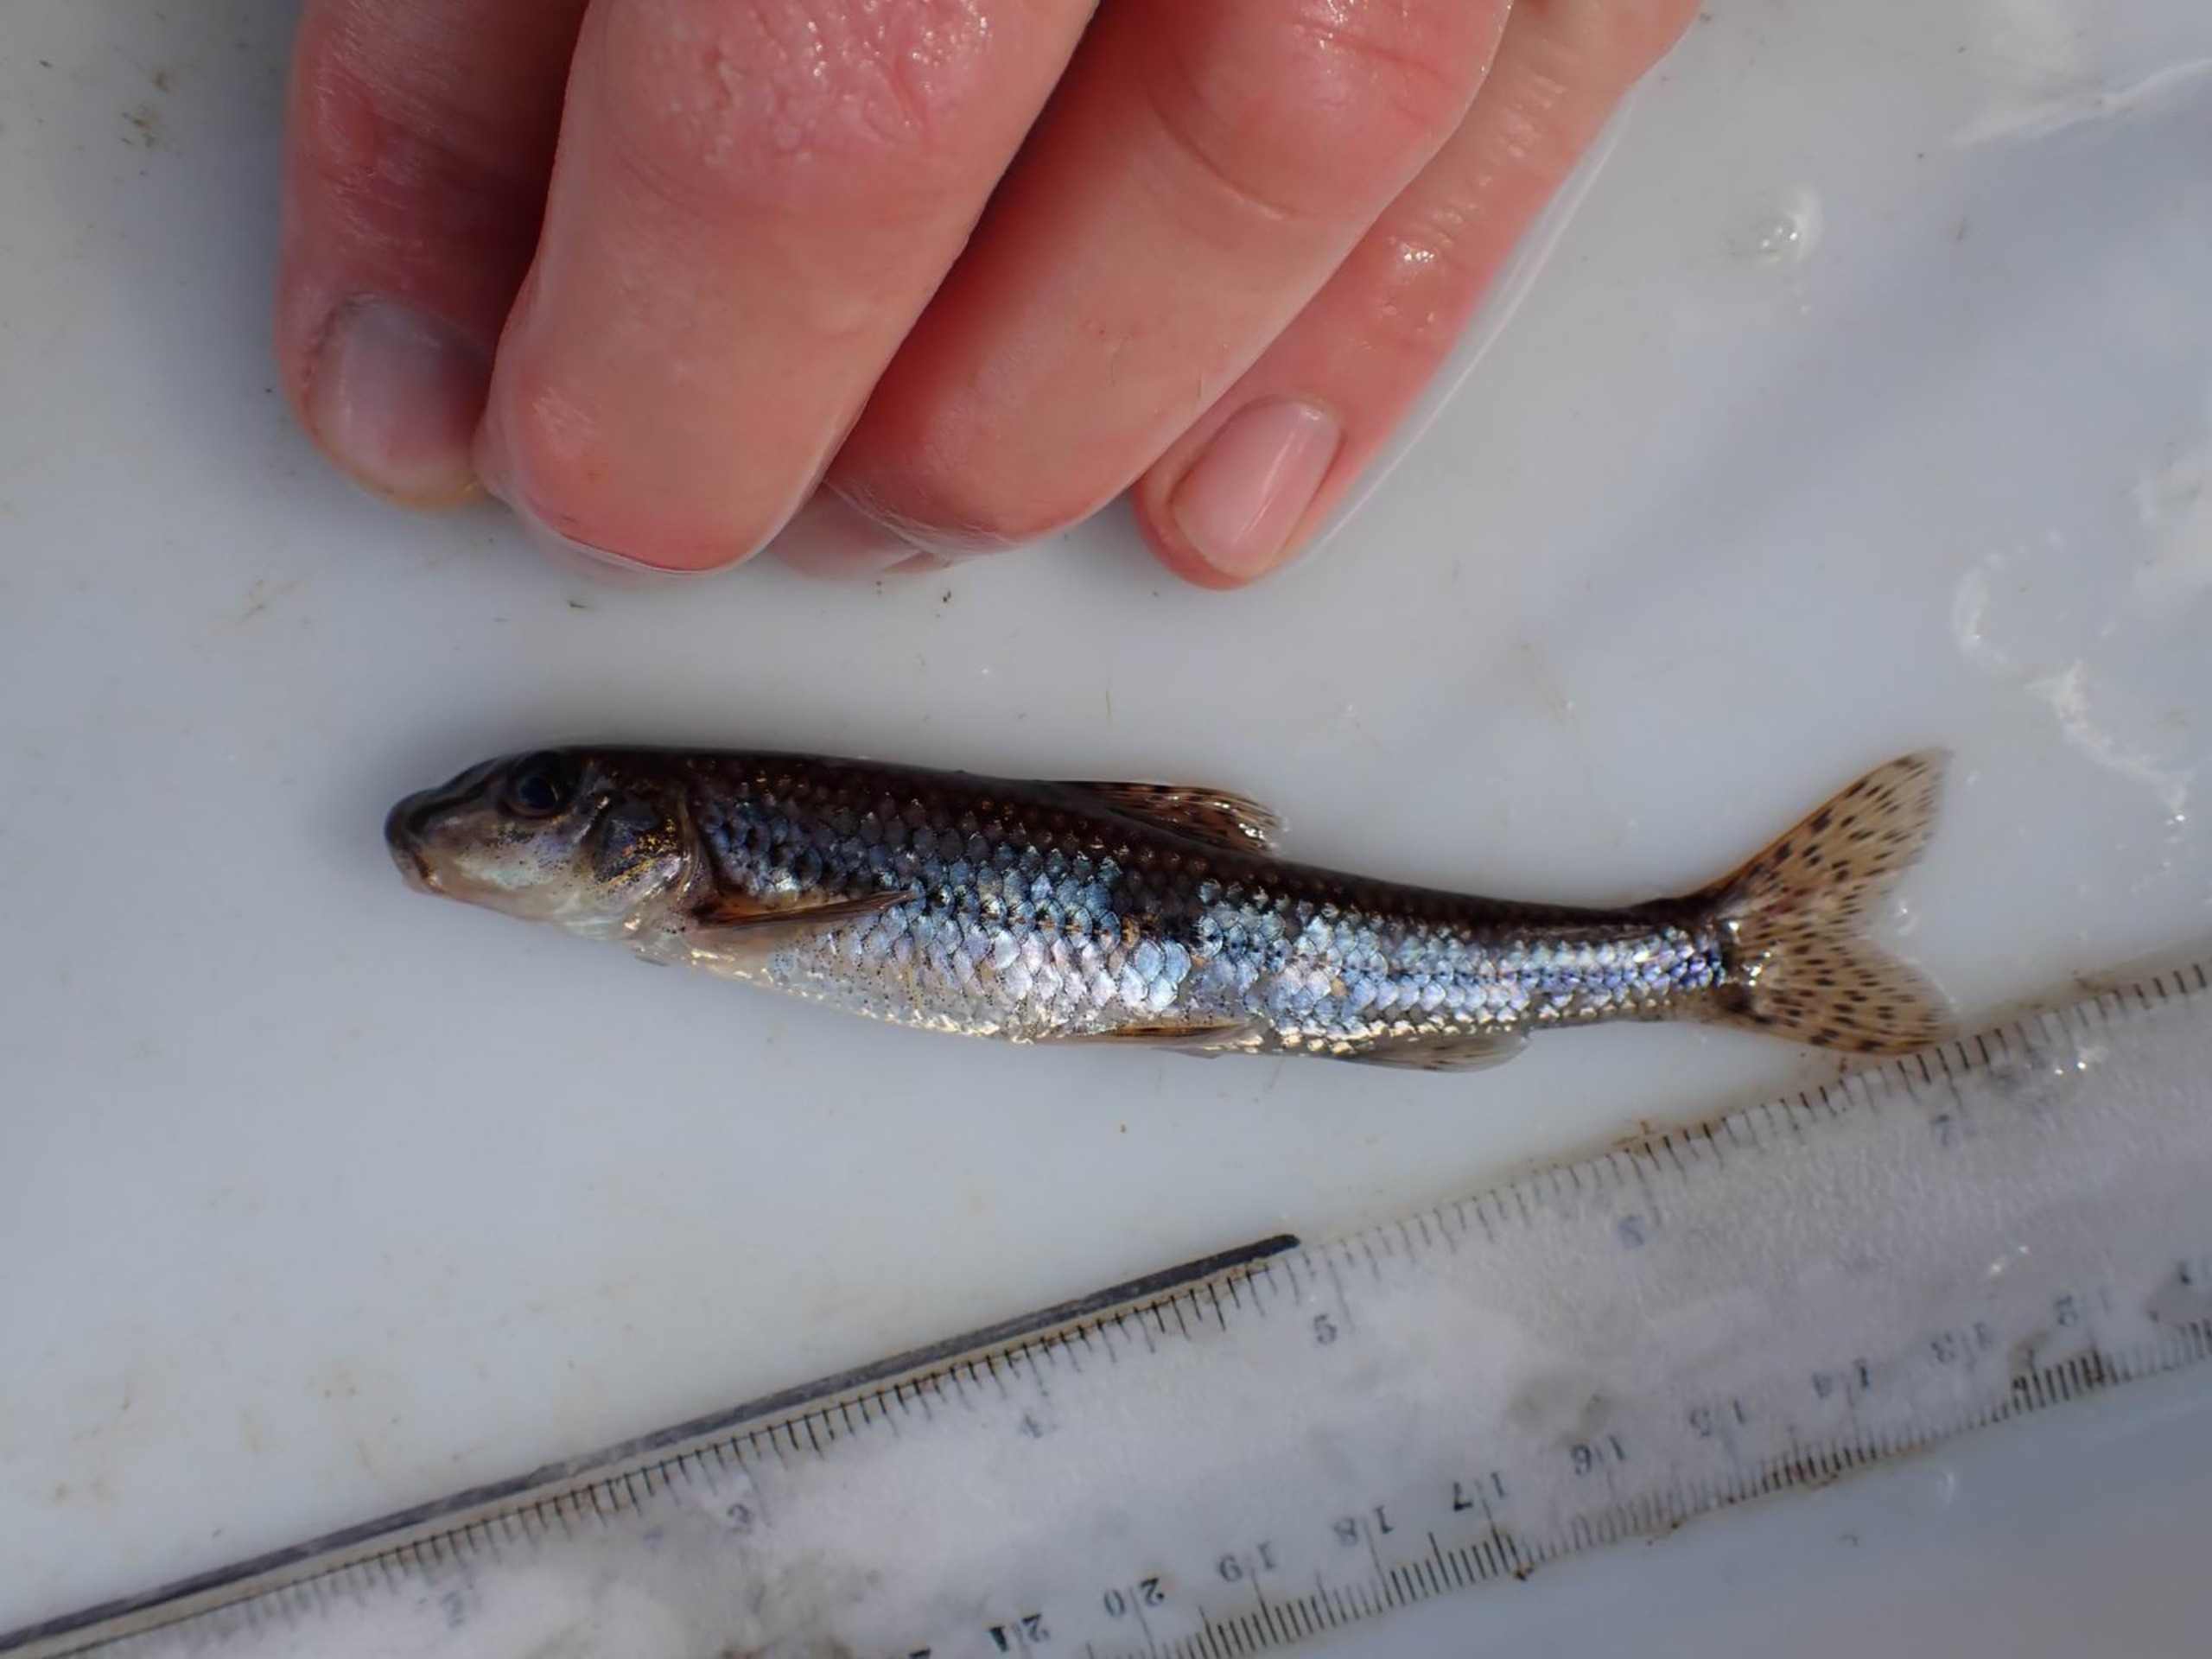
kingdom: Animalia
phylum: Chordata
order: Cypriniformes
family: Cyprinidae
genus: Gobio
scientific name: Gobio gobio
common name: Grundling
